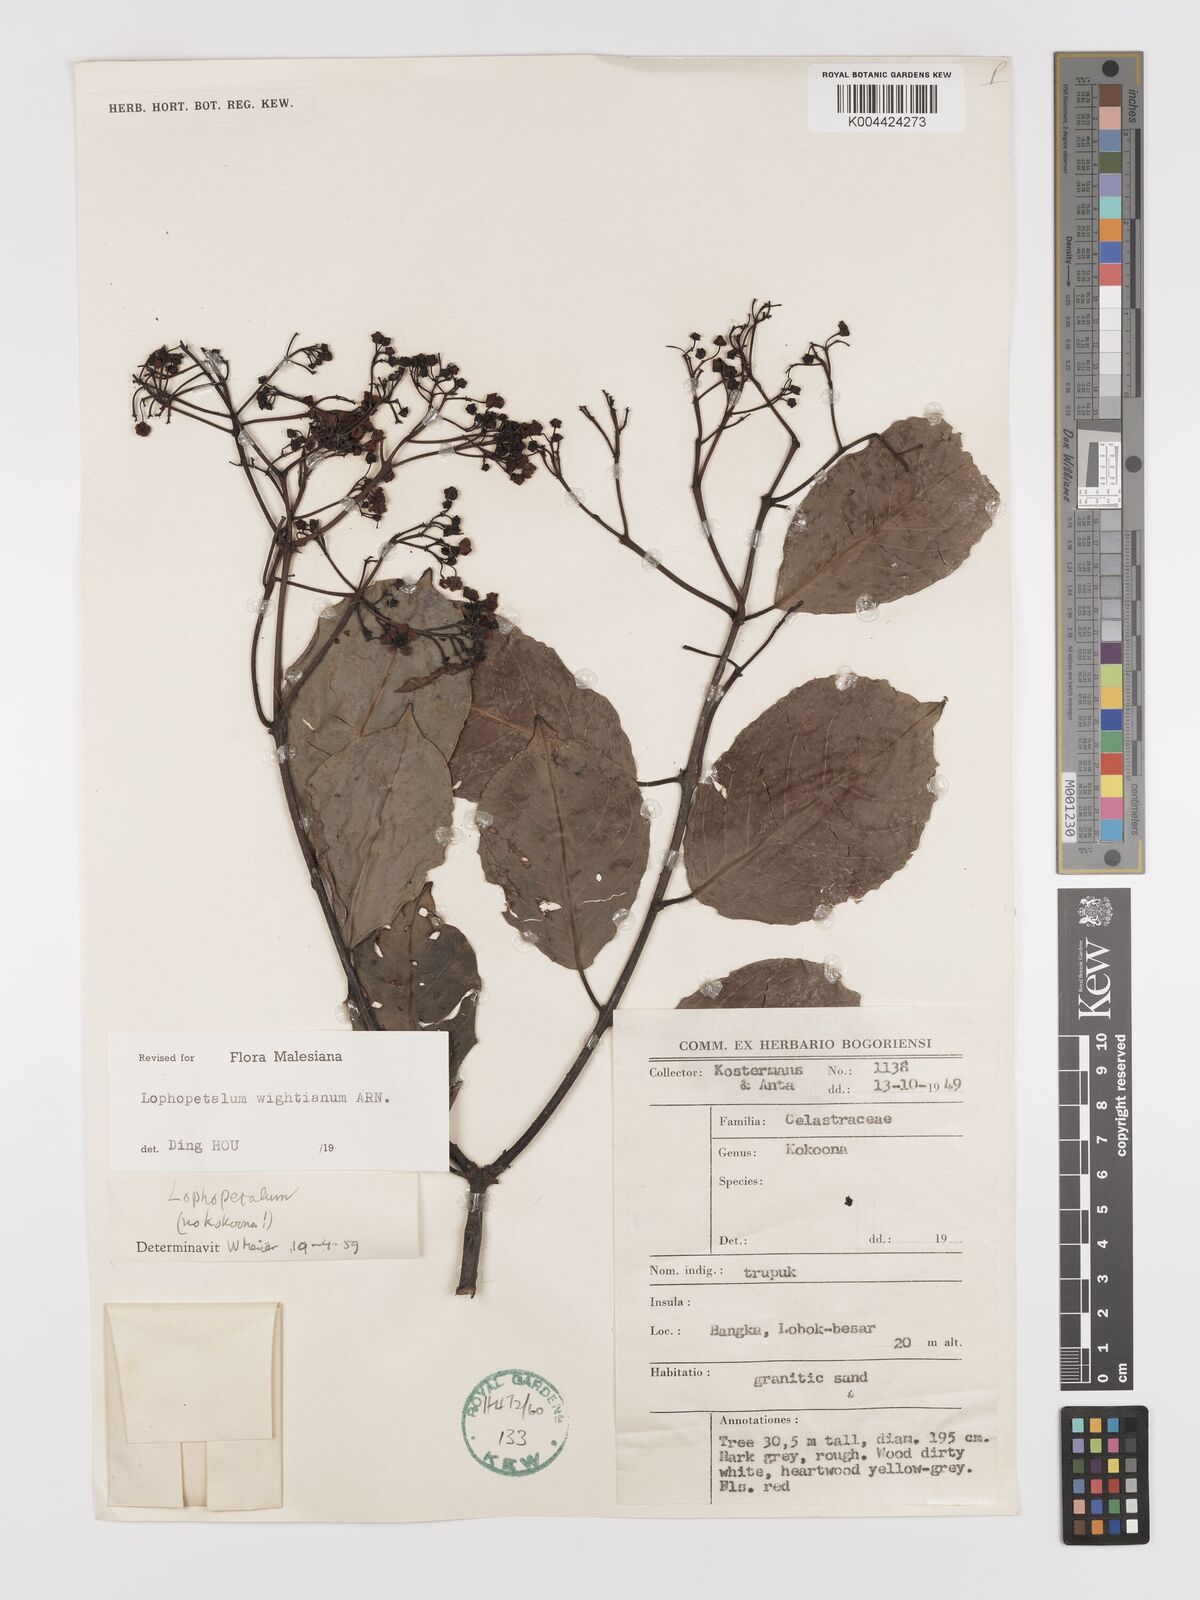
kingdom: Plantae
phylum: Tracheophyta
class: Magnoliopsida
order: Celastrales
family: Celastraceae
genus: Lophopetalum
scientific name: Lophopetalum wightianum
